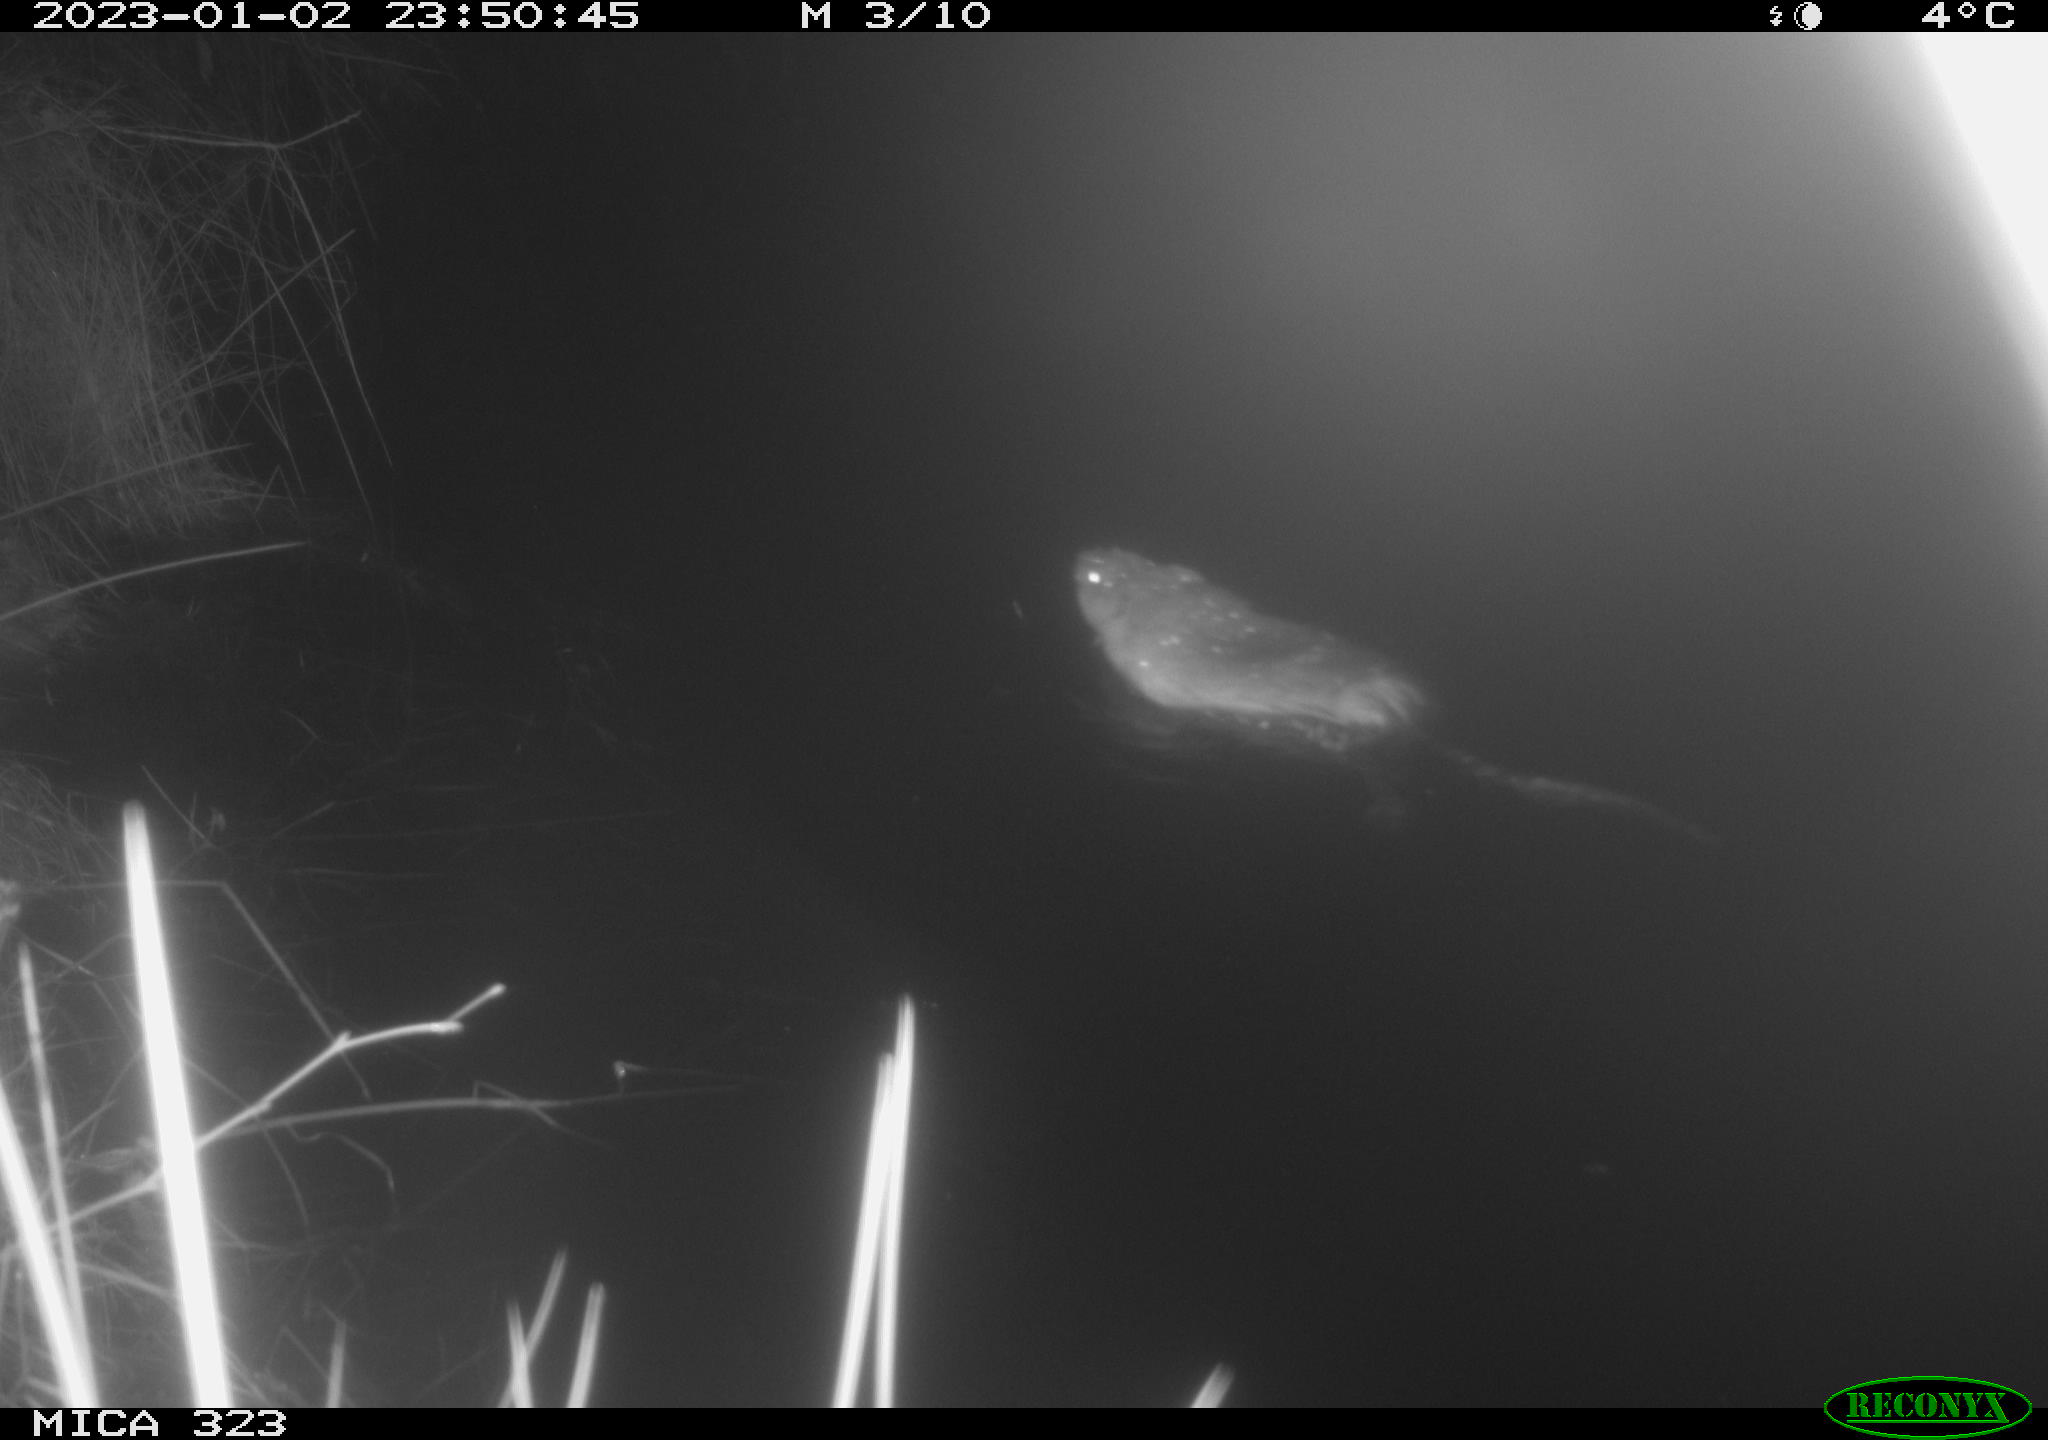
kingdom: Animalia
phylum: Chordata
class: Mammalia
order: Rodentia
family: Cricetidae
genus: Ondatra
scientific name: Ondatra zibethicus
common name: Muskrat
